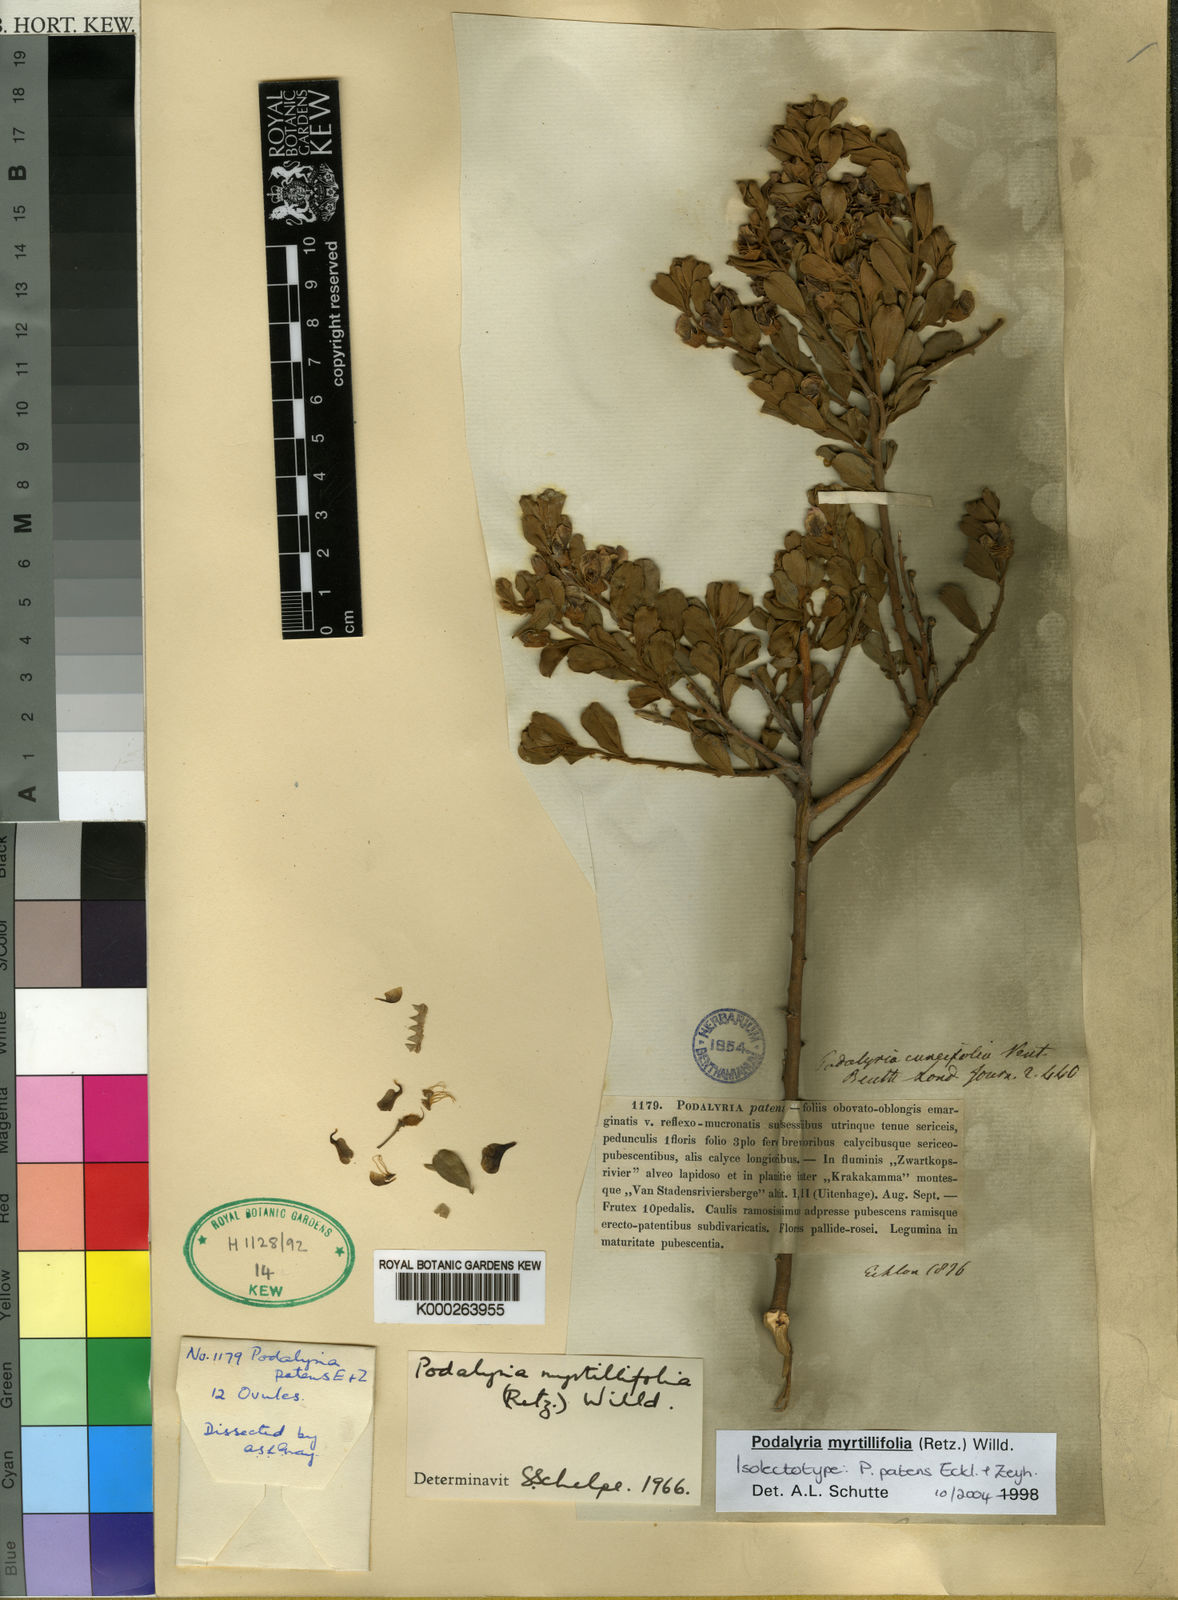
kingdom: Plantae
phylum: Tracheophyta
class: Magnoliopsida
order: Fabales
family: Fabaceae
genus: Podalyria
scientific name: Podalyria myrtillifolia
